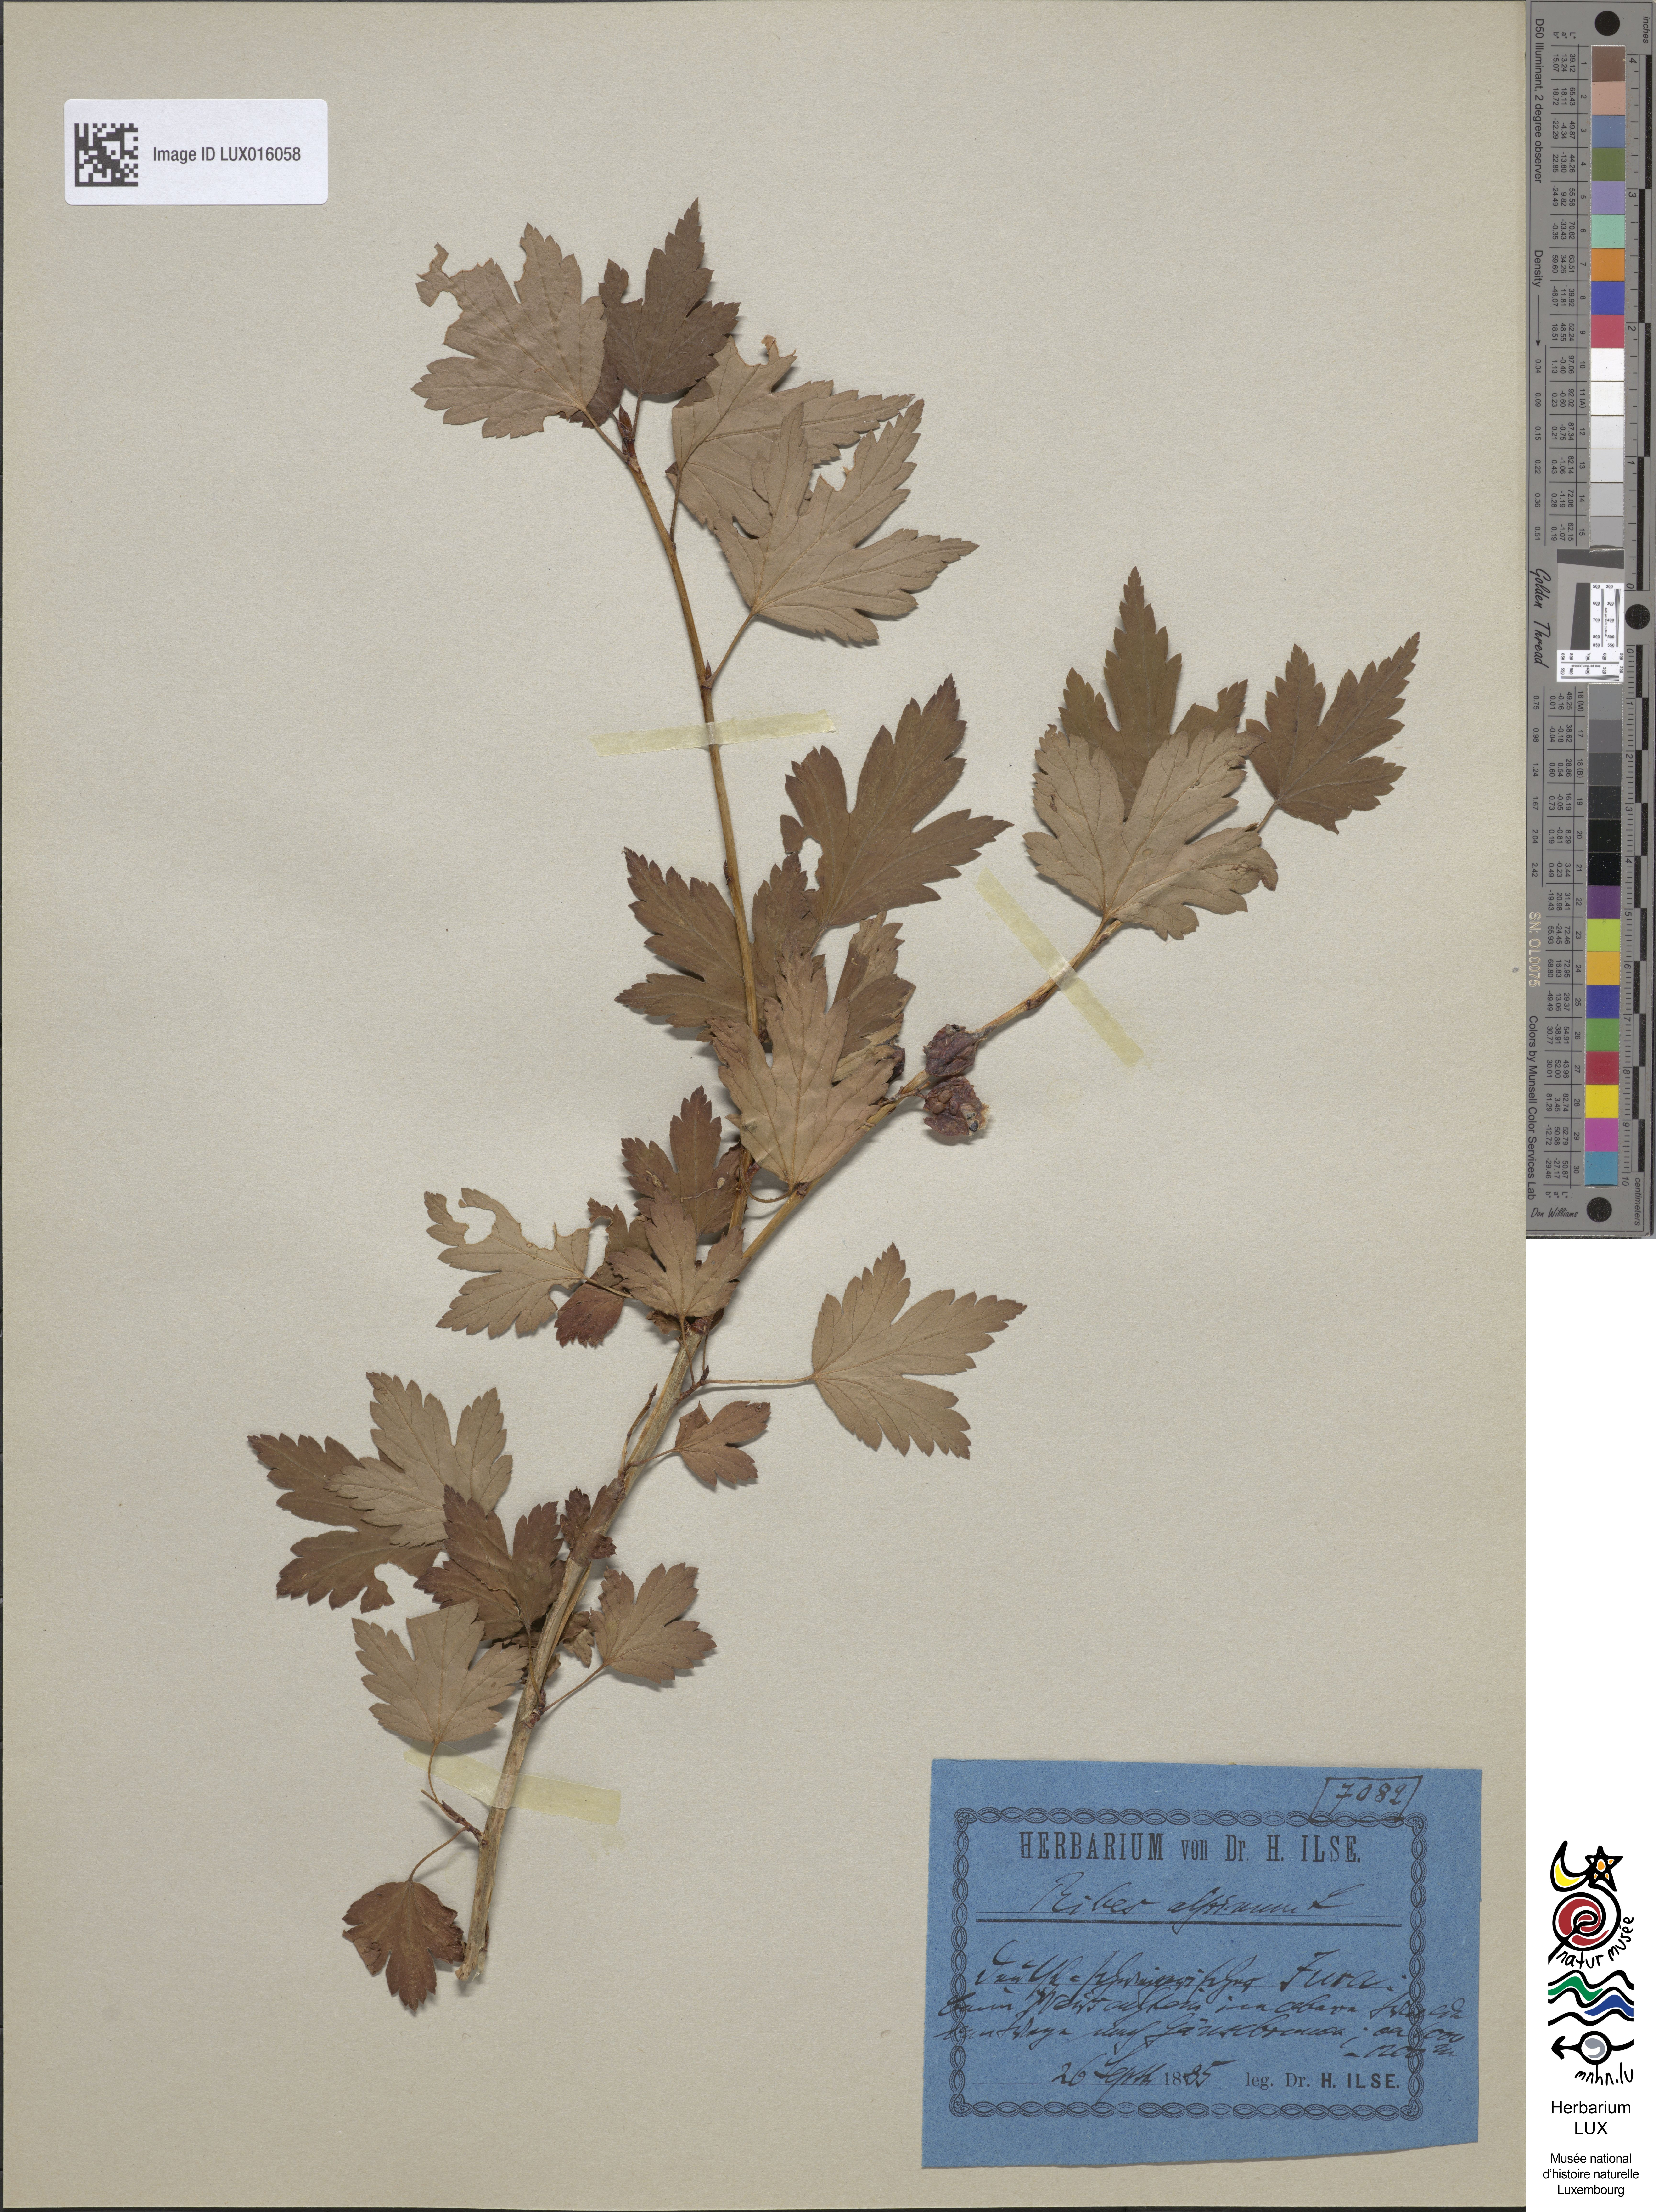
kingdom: Plantae
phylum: Tracheophyta
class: Magnoliopsida
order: Saxifragales
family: Grossulariaceae
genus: Ribes
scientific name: Ribes alpinum
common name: Alpine currant
